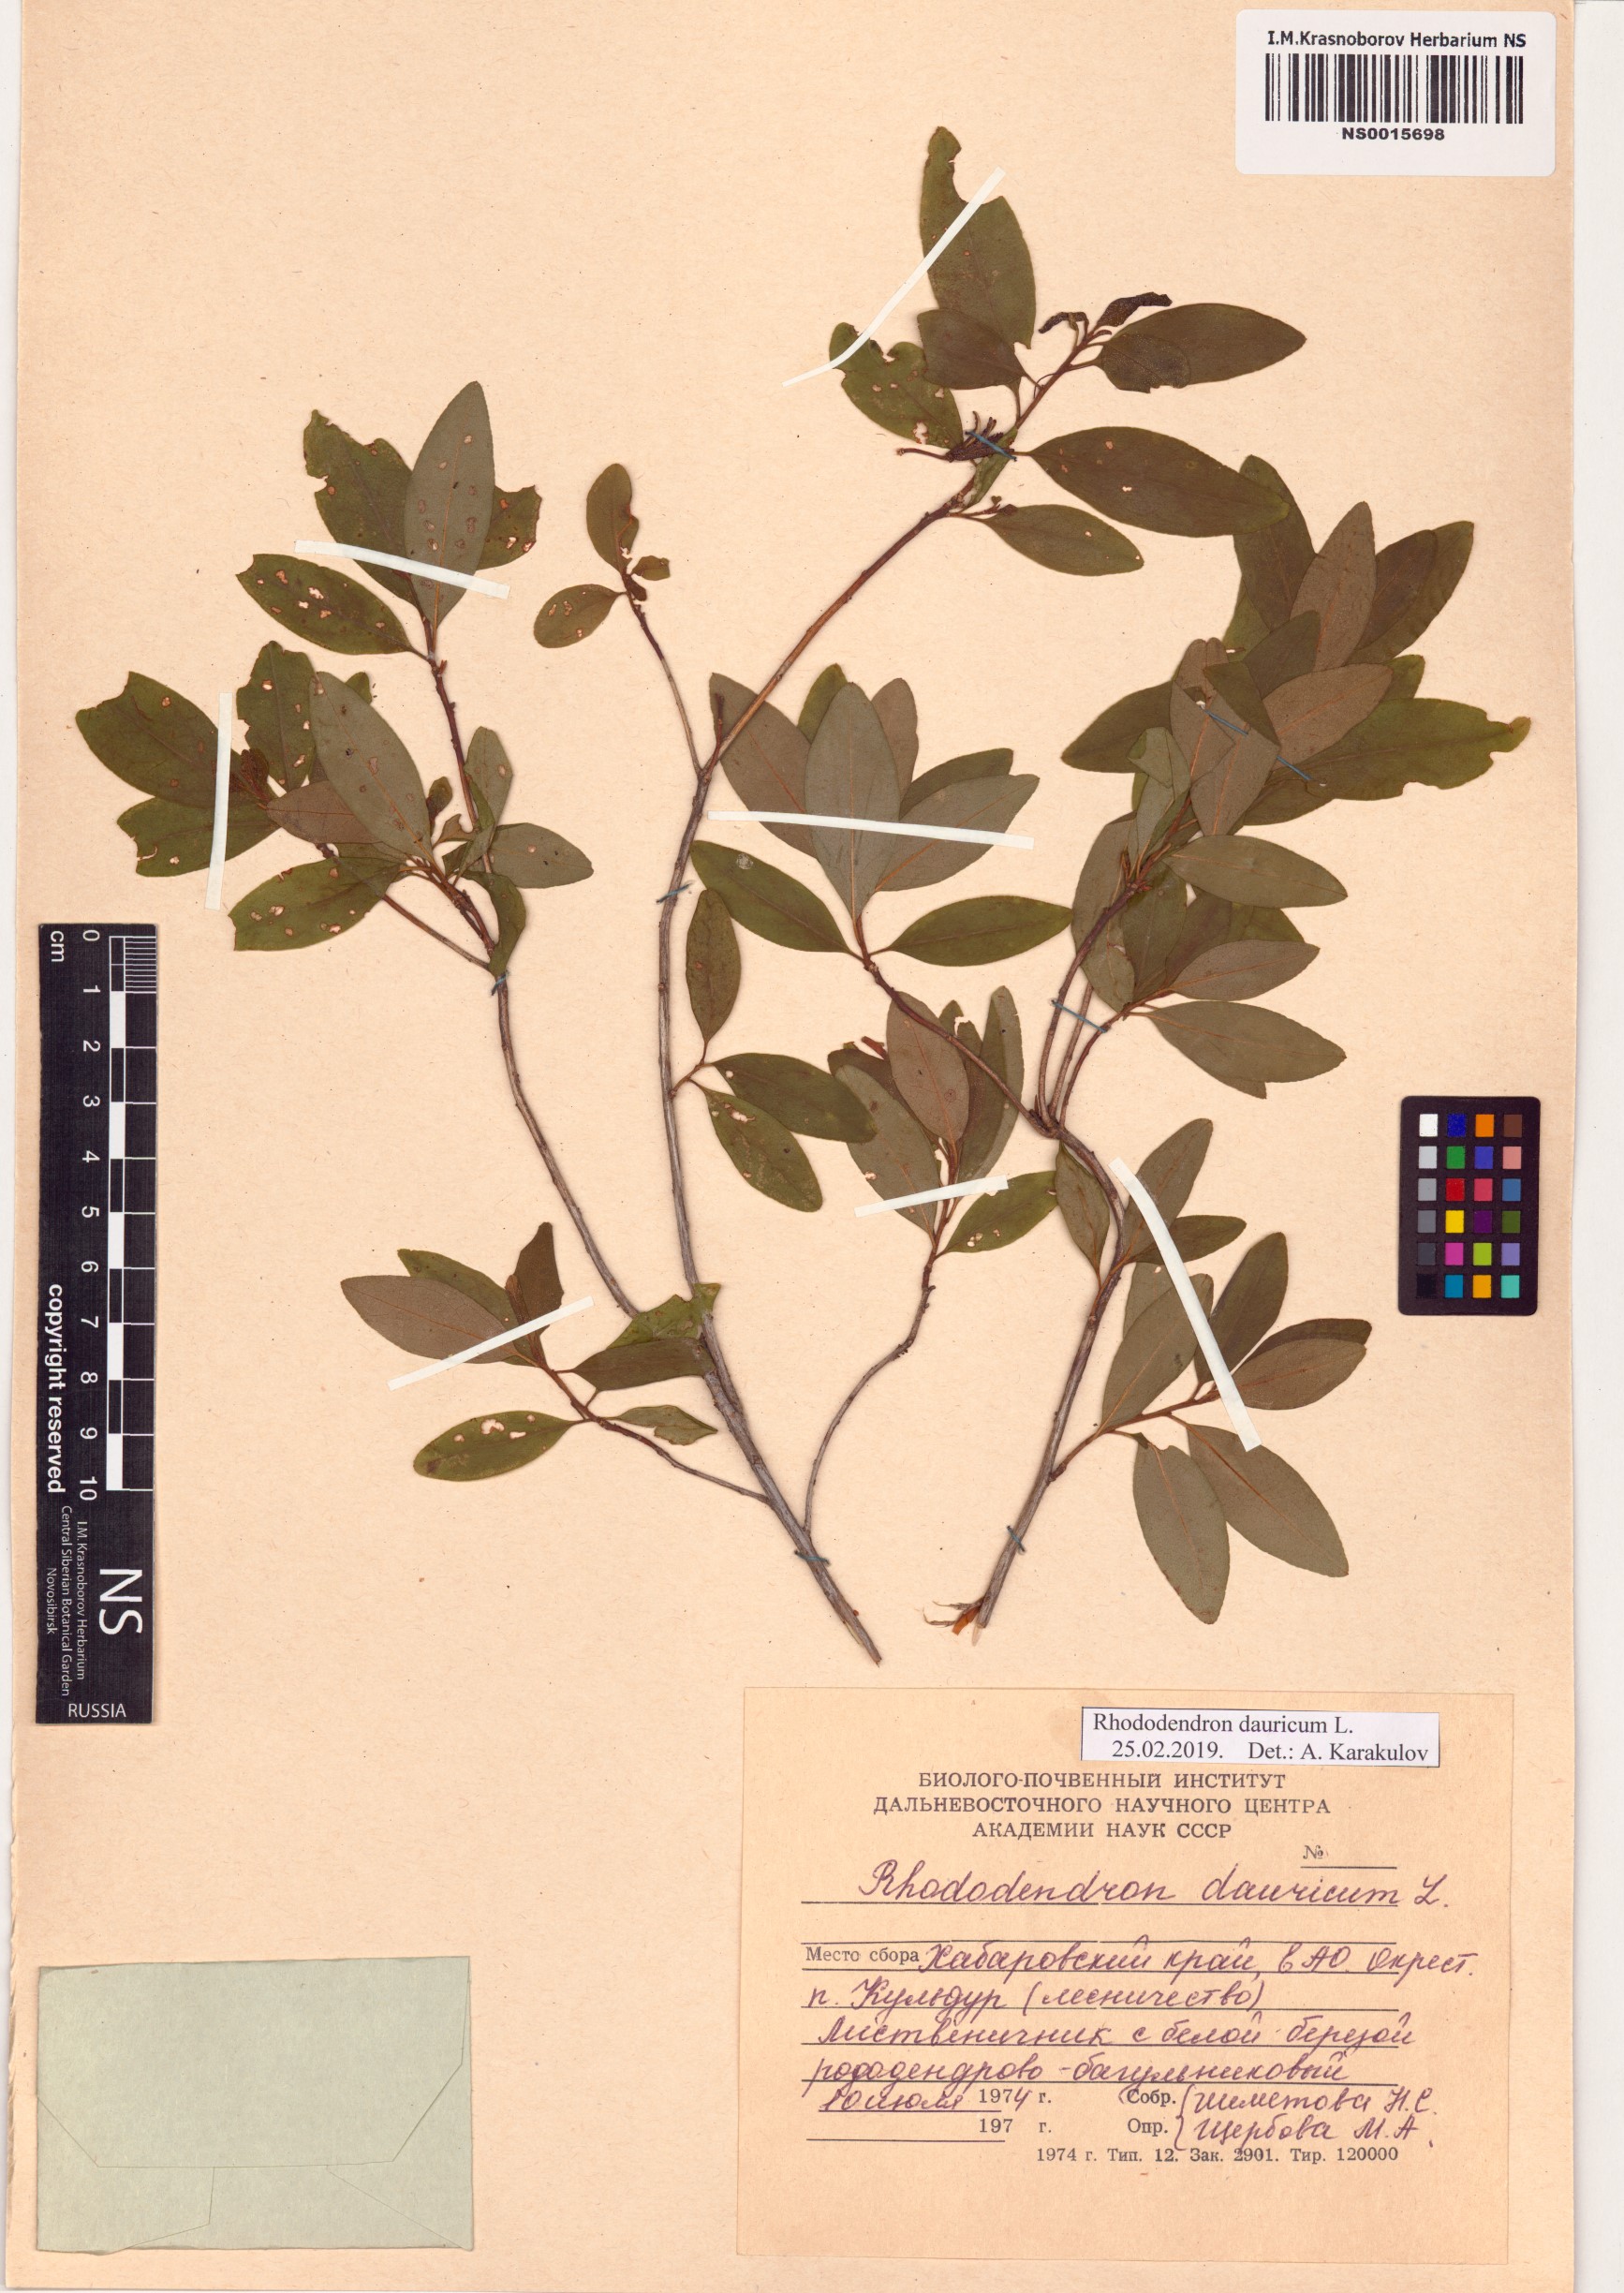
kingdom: Plantae
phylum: Tracheophyta
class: Magnoliopsida
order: Ericales
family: Ericaceae
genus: Rhododendron
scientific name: Rhododendron dauricum
